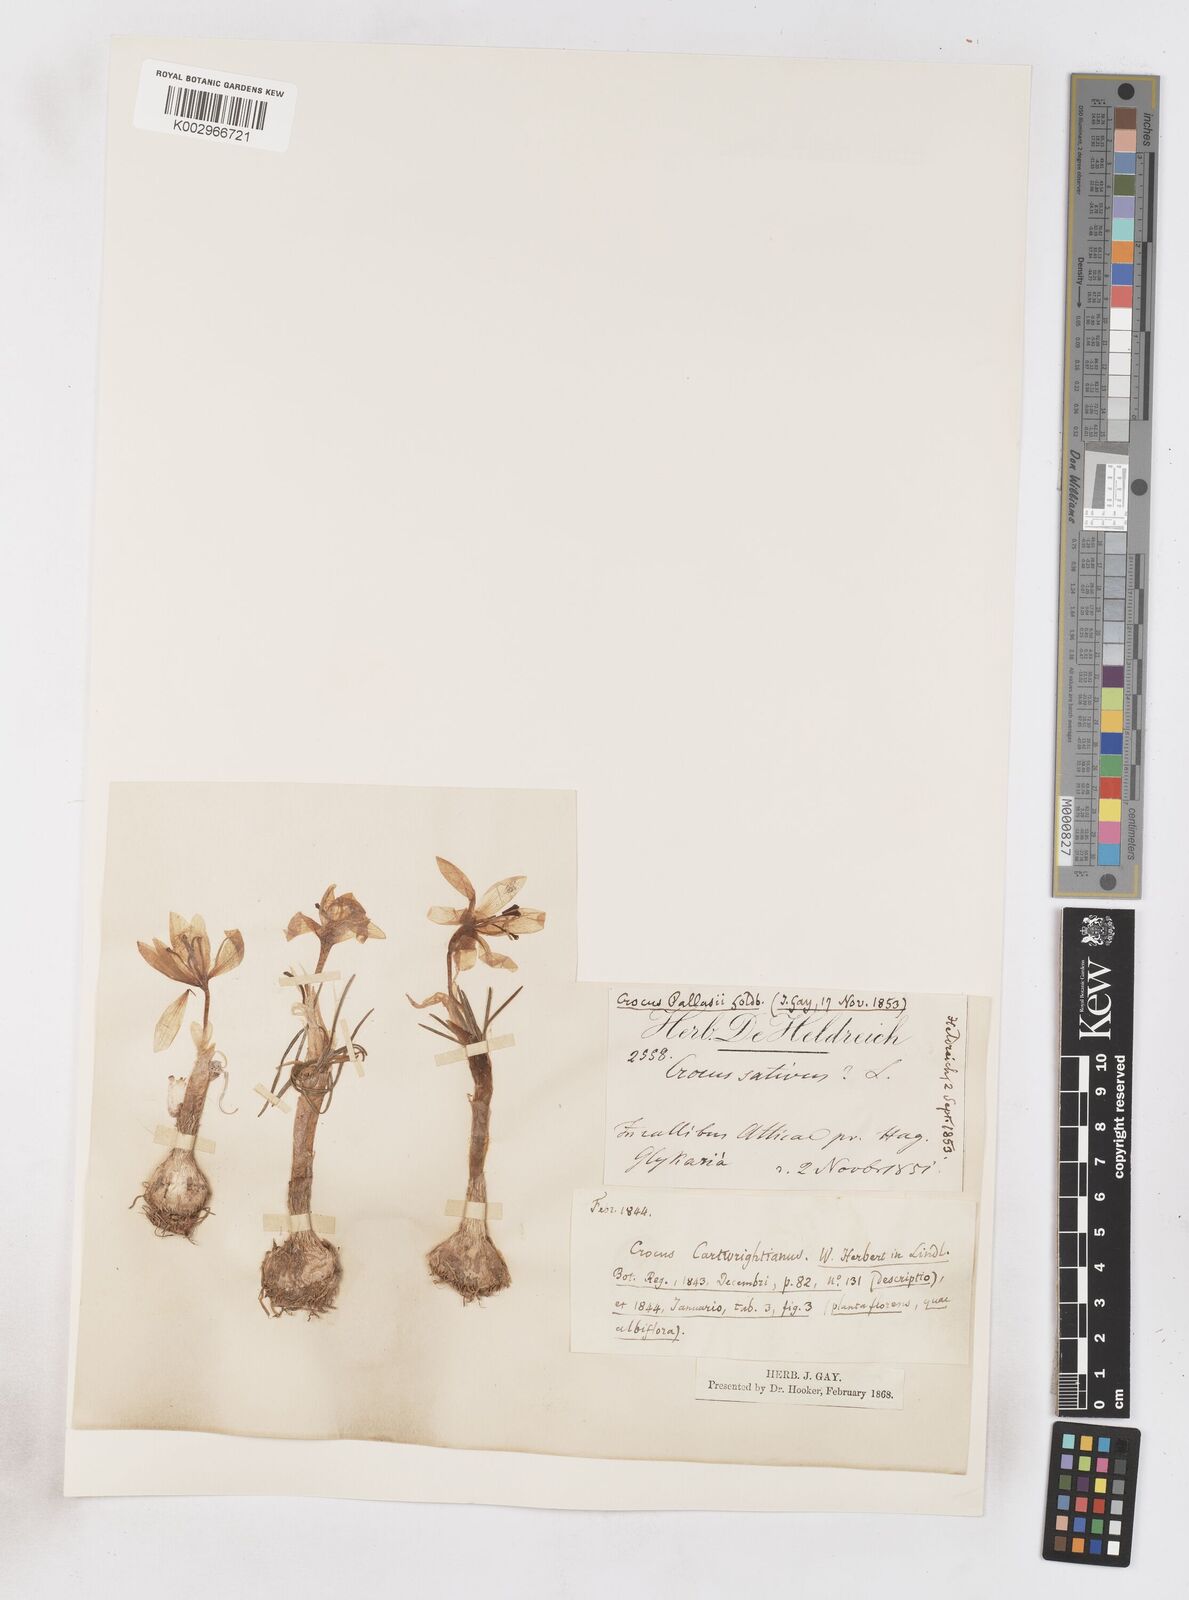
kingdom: Plantae
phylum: Tracheophyta
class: Liliopsida
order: Asparagales
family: Iridaceae
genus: Crocus
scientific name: Crocus cartwrightianus
